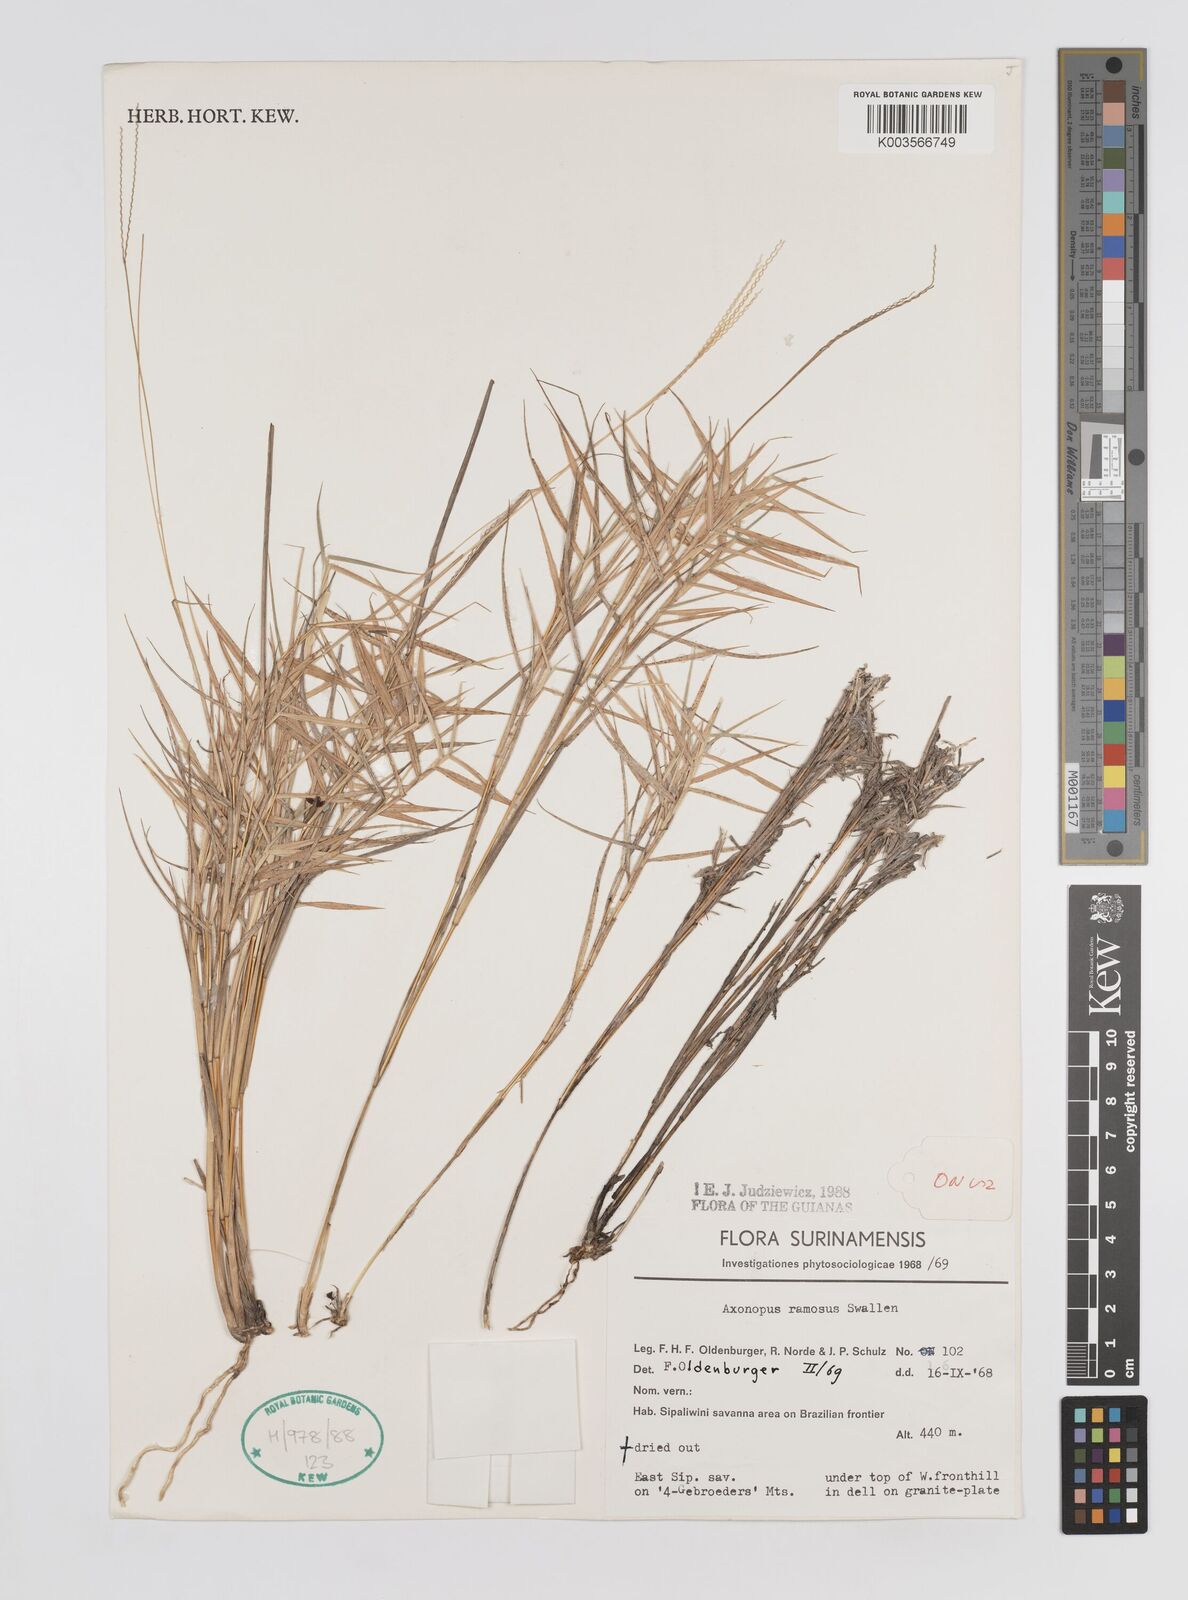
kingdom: Plantae
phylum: Tracheophyta
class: Liliopsida
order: Poales
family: Poaceae
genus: Axonopus
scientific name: Axonopus ramosus
